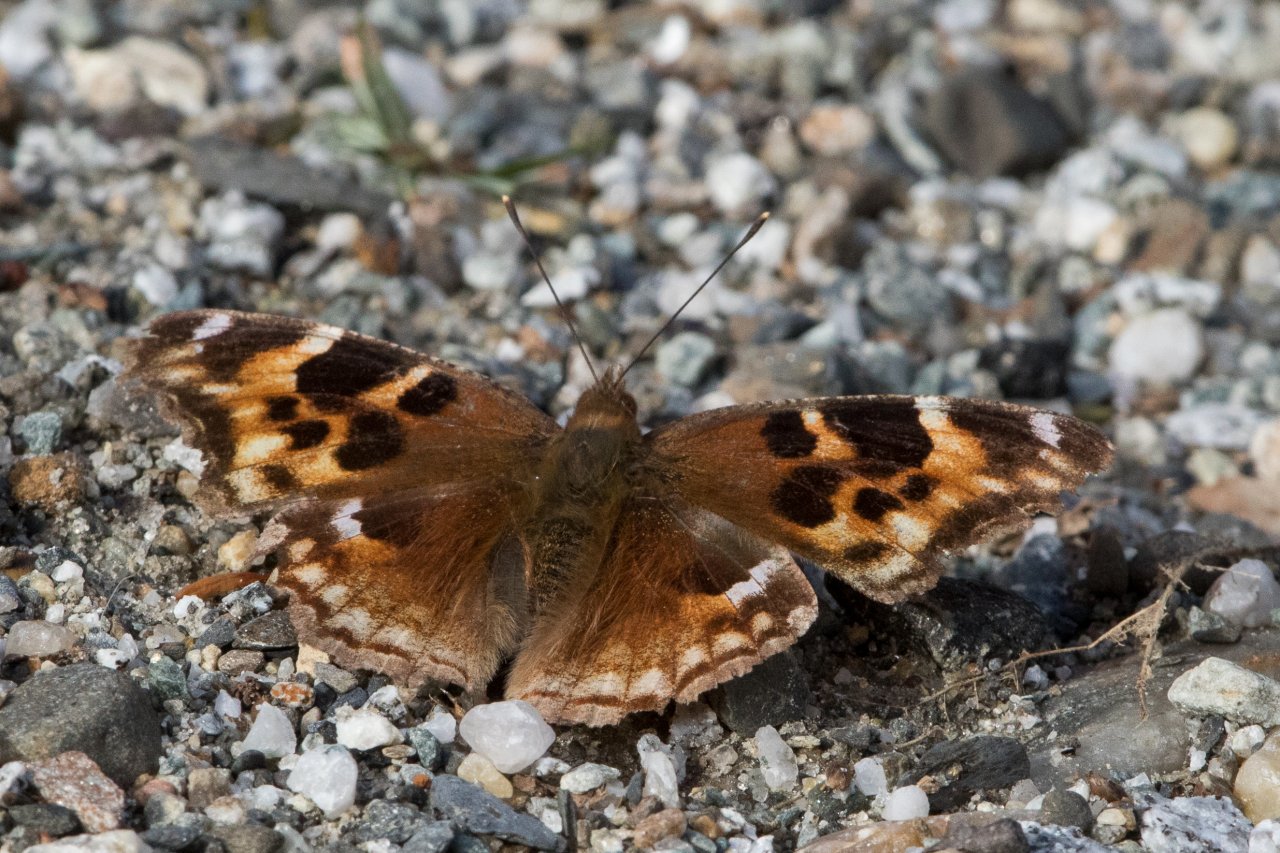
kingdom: Animalia
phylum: Arthropoda
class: Insecta
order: Lepidoptera
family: Nymphalidae
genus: Polygonia
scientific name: Polygonia vaualbum
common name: Compton Tortoiseshell
